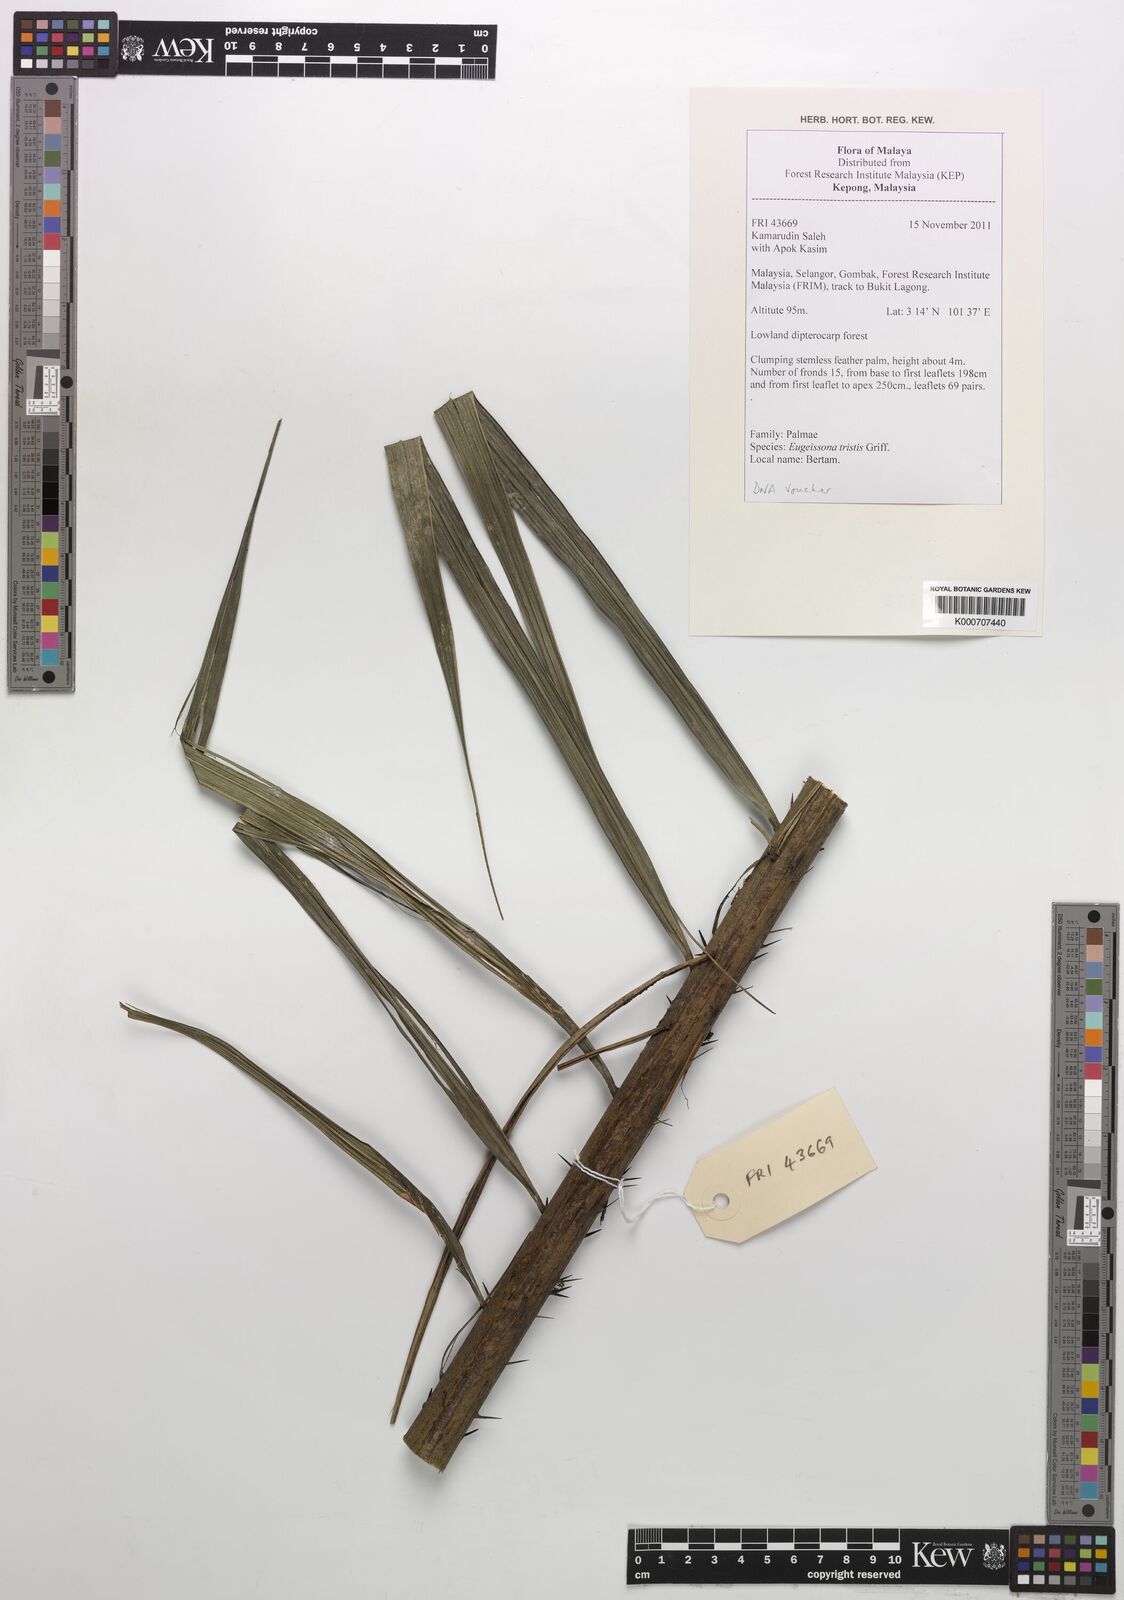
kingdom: Plantae
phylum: Tracheophyta
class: Liliopsida
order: Arecales
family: Arecaceae
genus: Eugeissona
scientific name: Eugeissona tristis
